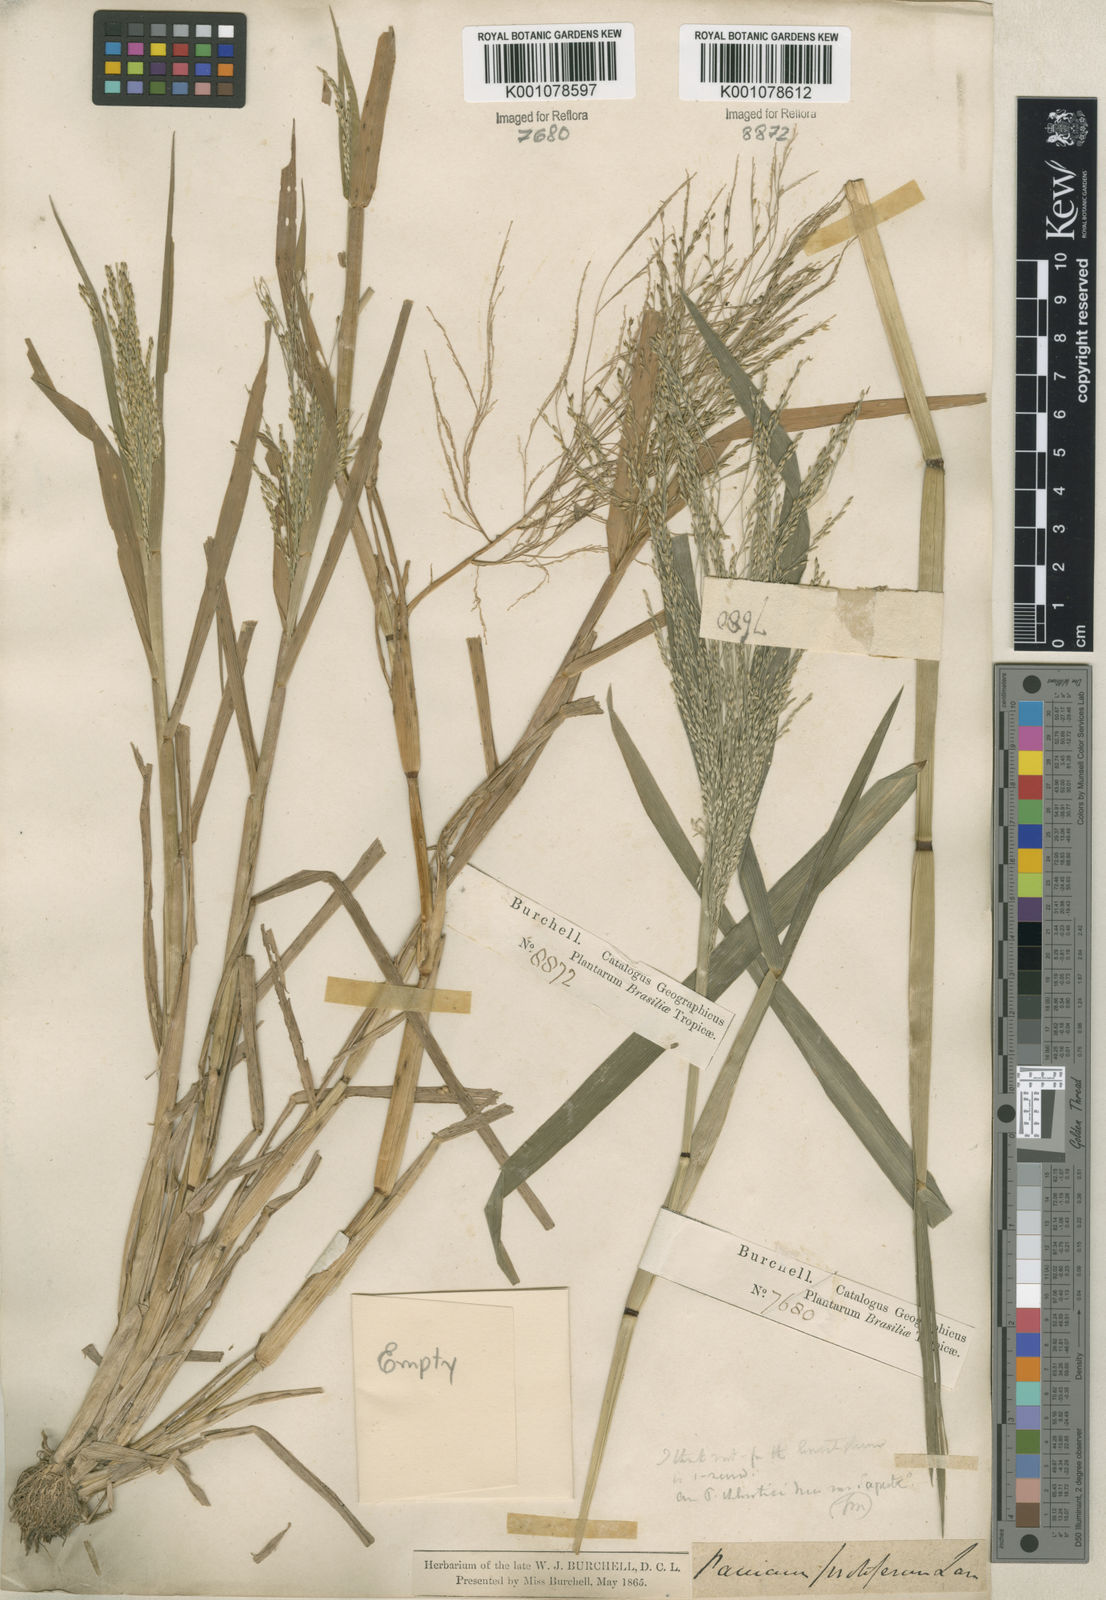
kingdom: Plantae
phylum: Tracheophyta
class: Liliopsida
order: Poales
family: Poaceae
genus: Panicum
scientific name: Panicum dichotomiflorum
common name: Autumn millet
